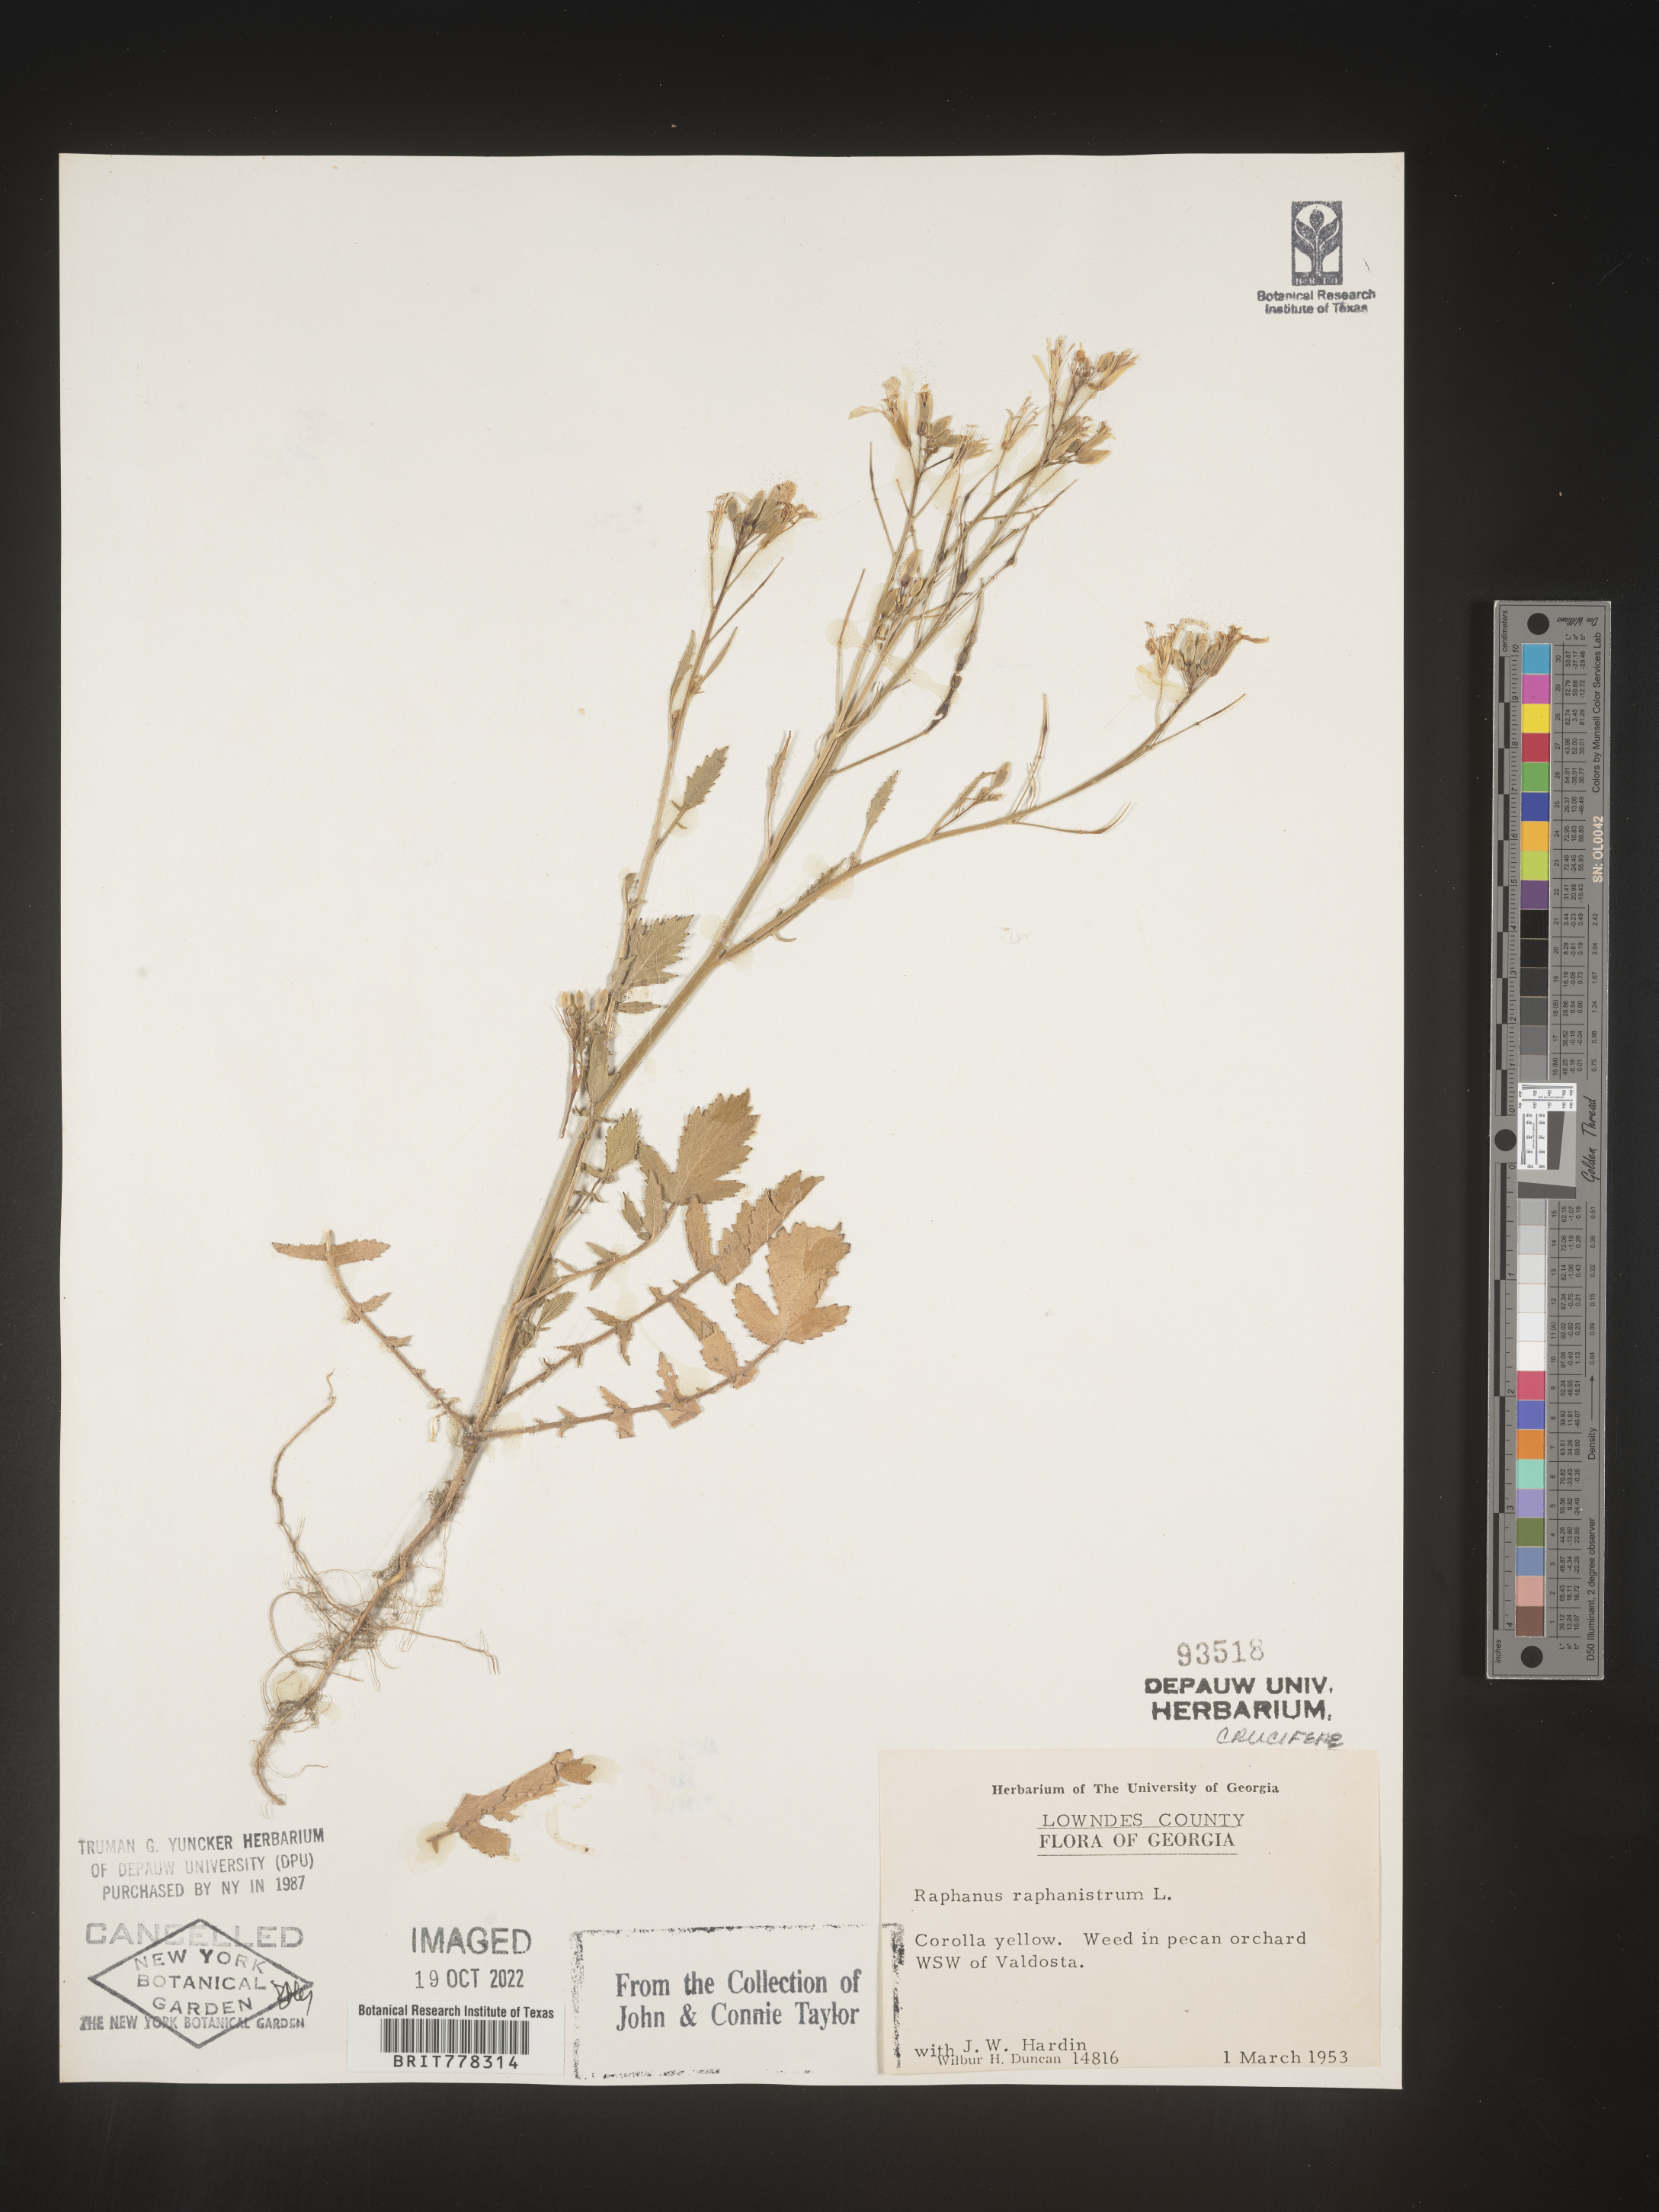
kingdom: Plantae
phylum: Tracheophyta
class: Magnoliopsida
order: Brassicales
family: Brassicaceae
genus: Raphanus
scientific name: Raphanus raphanistrum
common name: Wild radish
